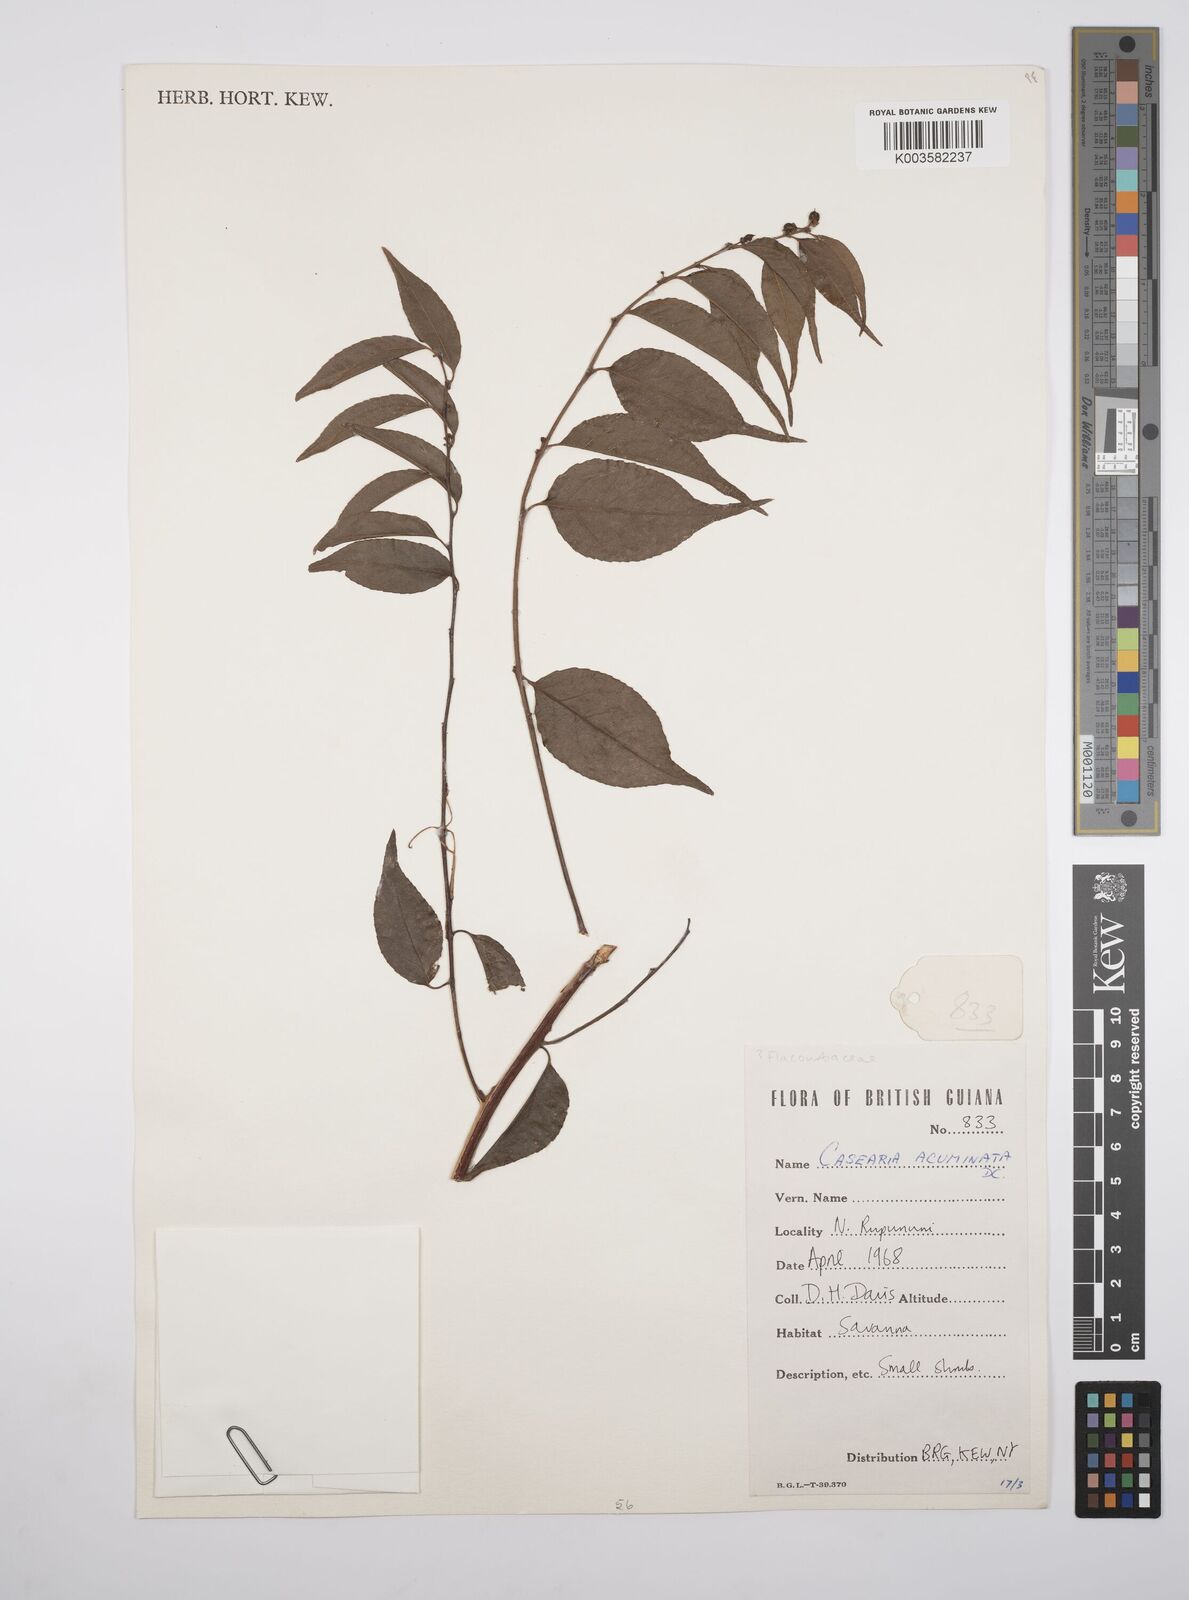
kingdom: Plantae
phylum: Tracheophyta
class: Magnoliopsida
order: Malpighiales
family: Salicaceae
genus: Casearia
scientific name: Casearia acuminata
